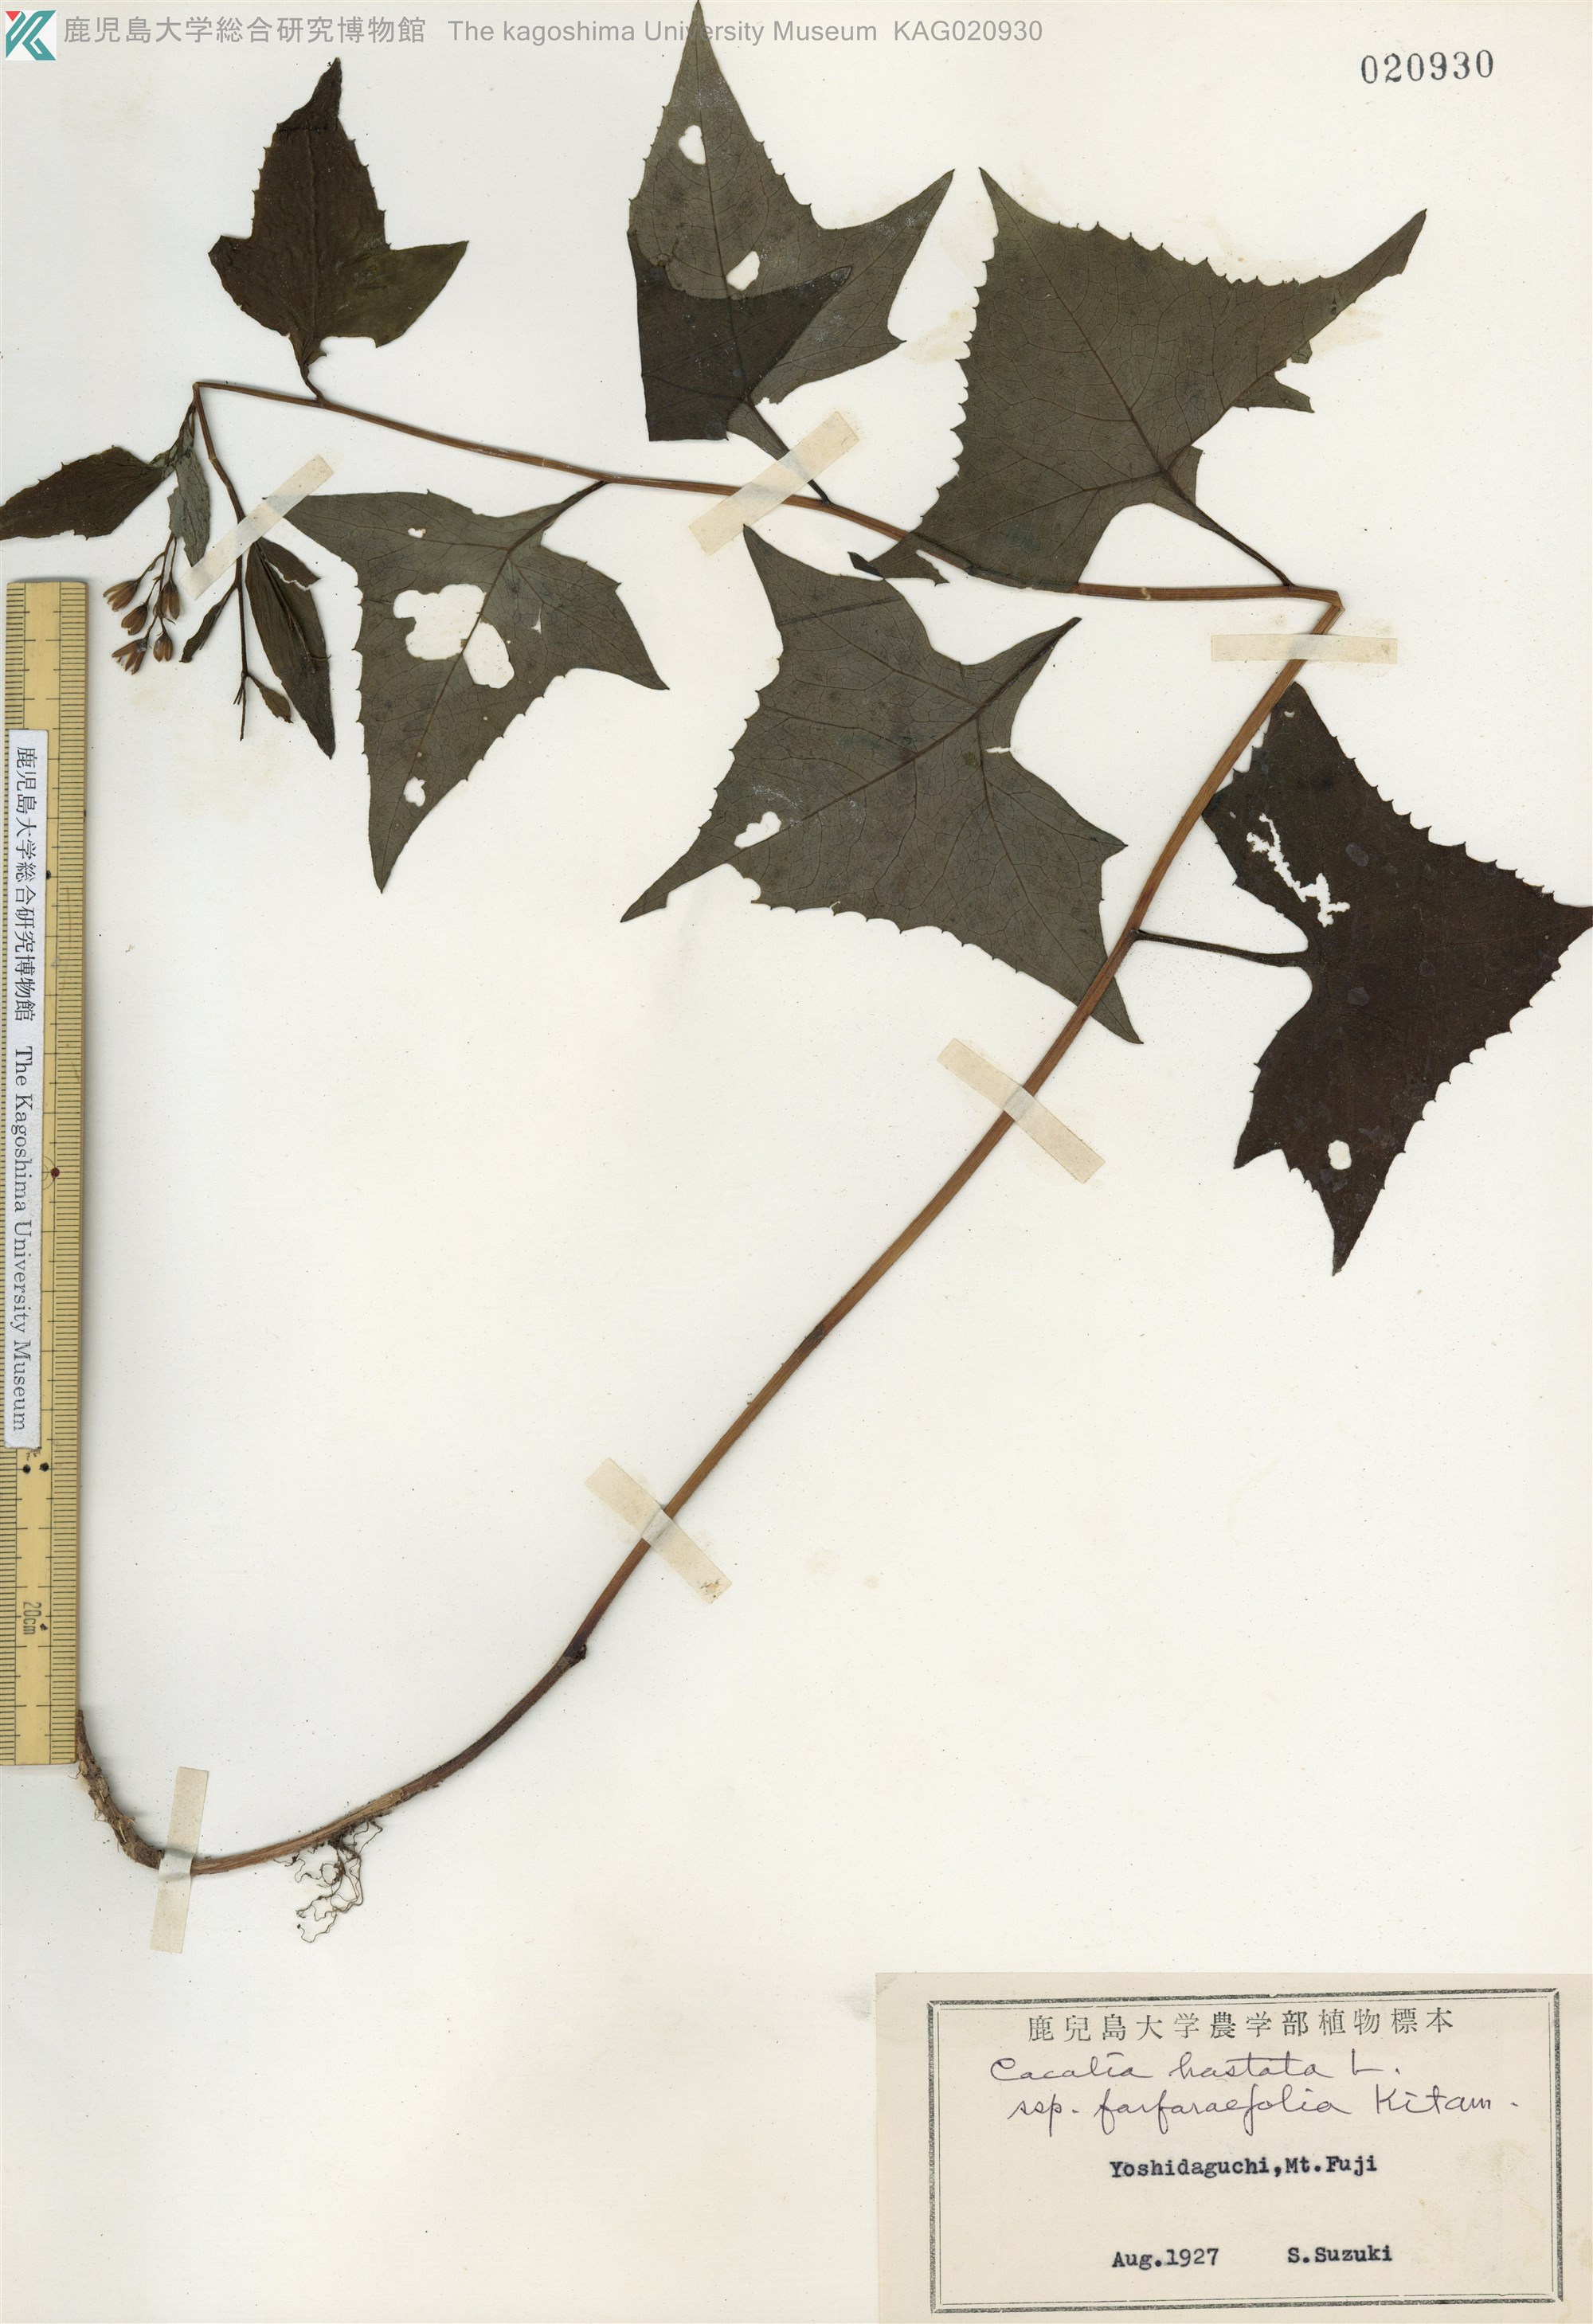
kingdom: Plantae
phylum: Tracheophyta
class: Magnoliopsida
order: Asterales
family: Asteraceae
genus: Parasenecio
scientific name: Parasenecio maximowicziana
